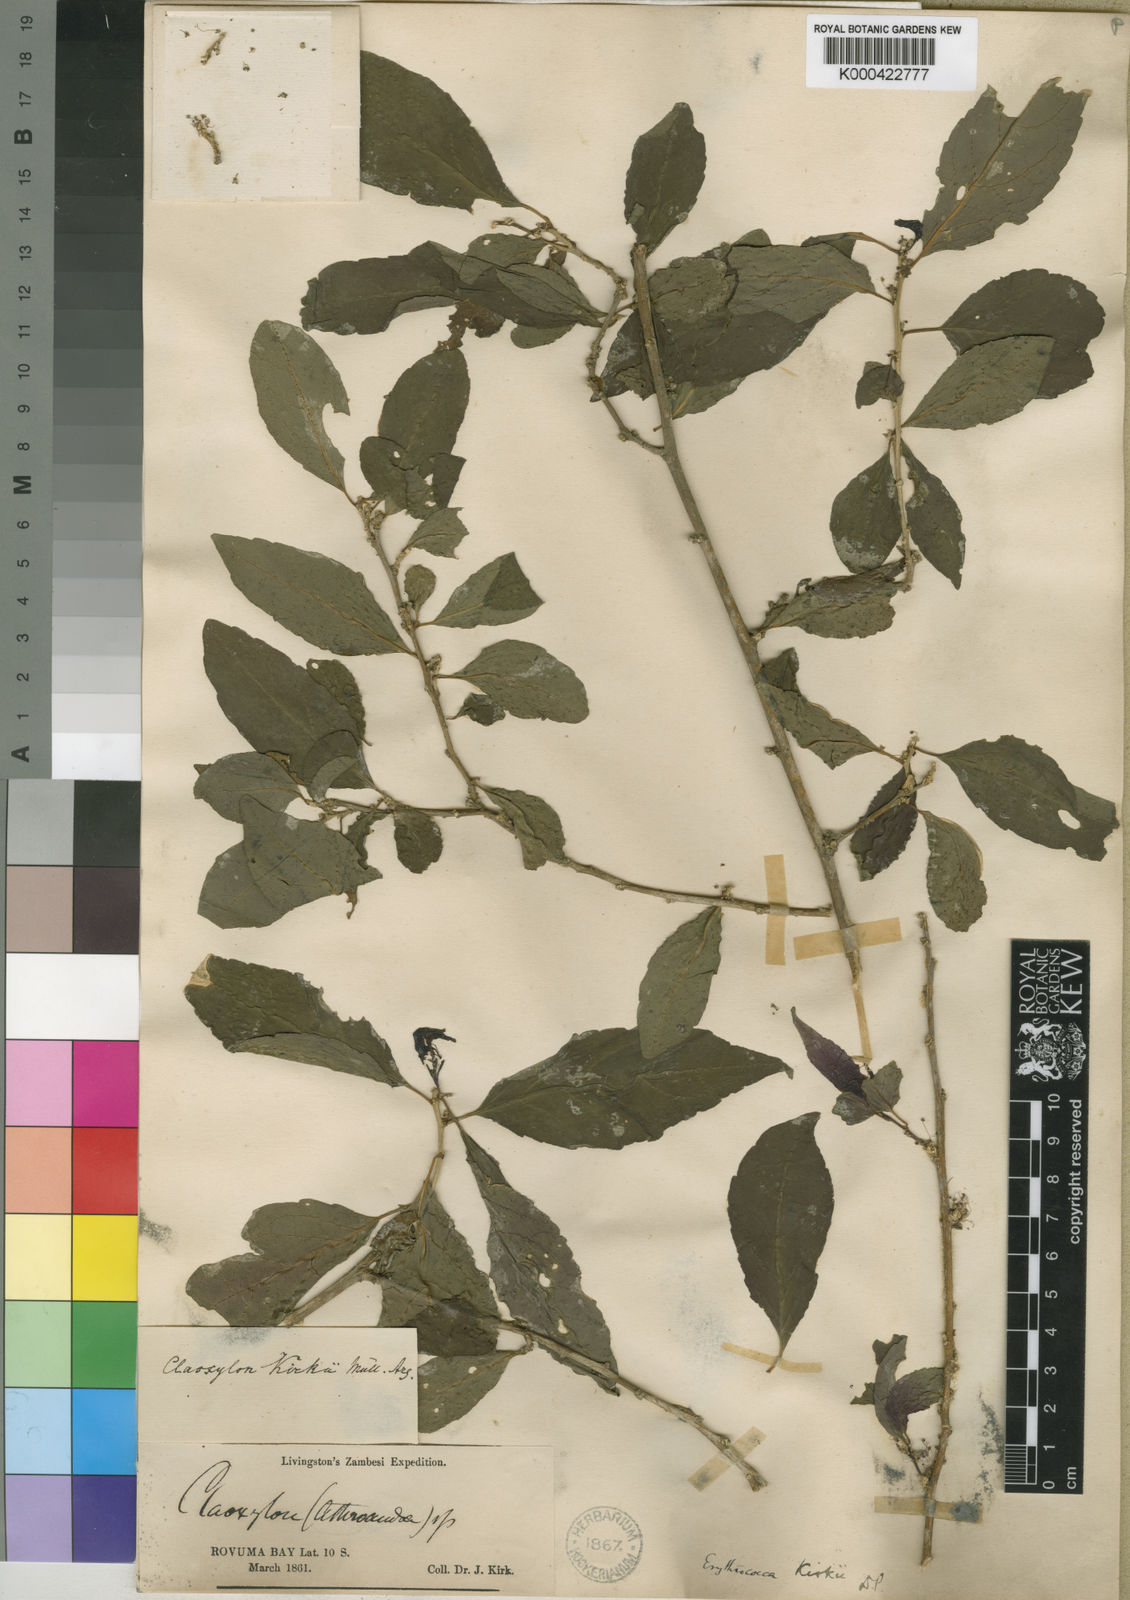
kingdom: Plantae
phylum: Tracheophyta
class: Magnoliopsida
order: Malpighiales
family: Euphorbiaceae
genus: Erythrococca
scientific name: Erythrococca
